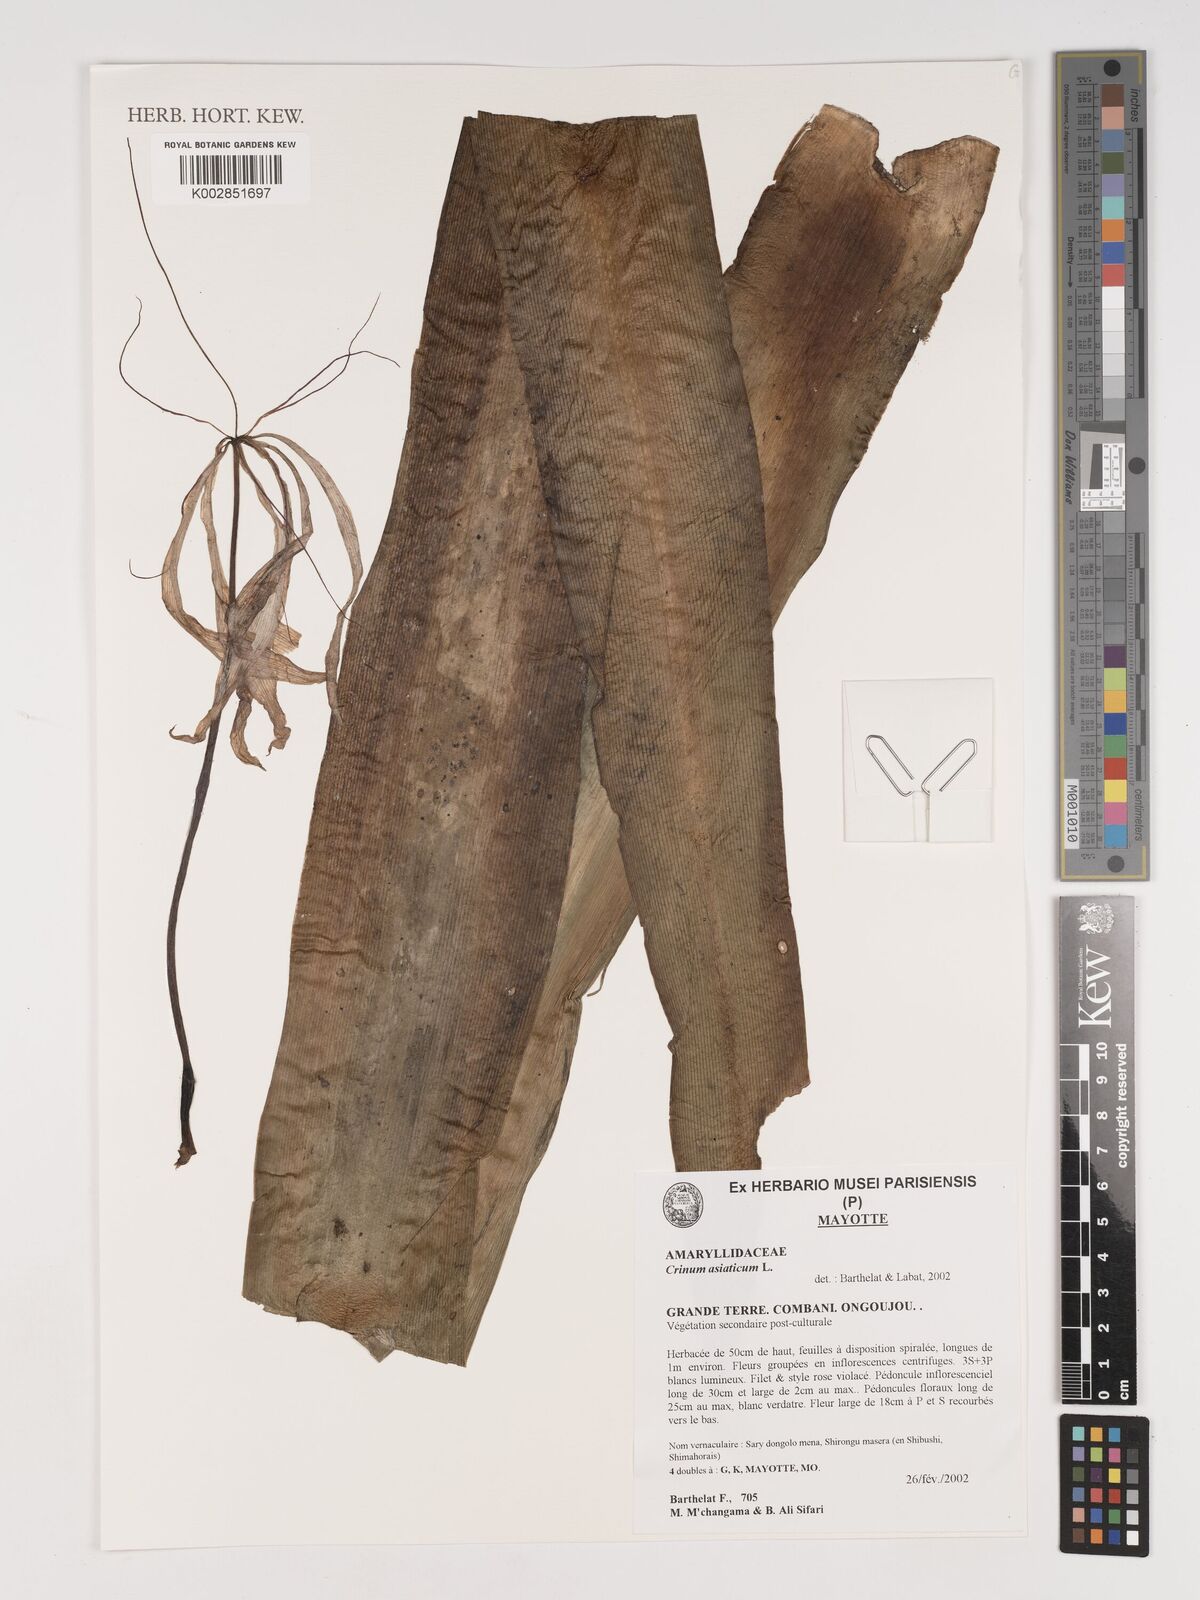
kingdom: Plantae
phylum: Tracheophyta
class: Liliopsida
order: Asparagales
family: Amaryllidaceae
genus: Crinum
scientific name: Crinum asiaticum
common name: Poisonbulb
